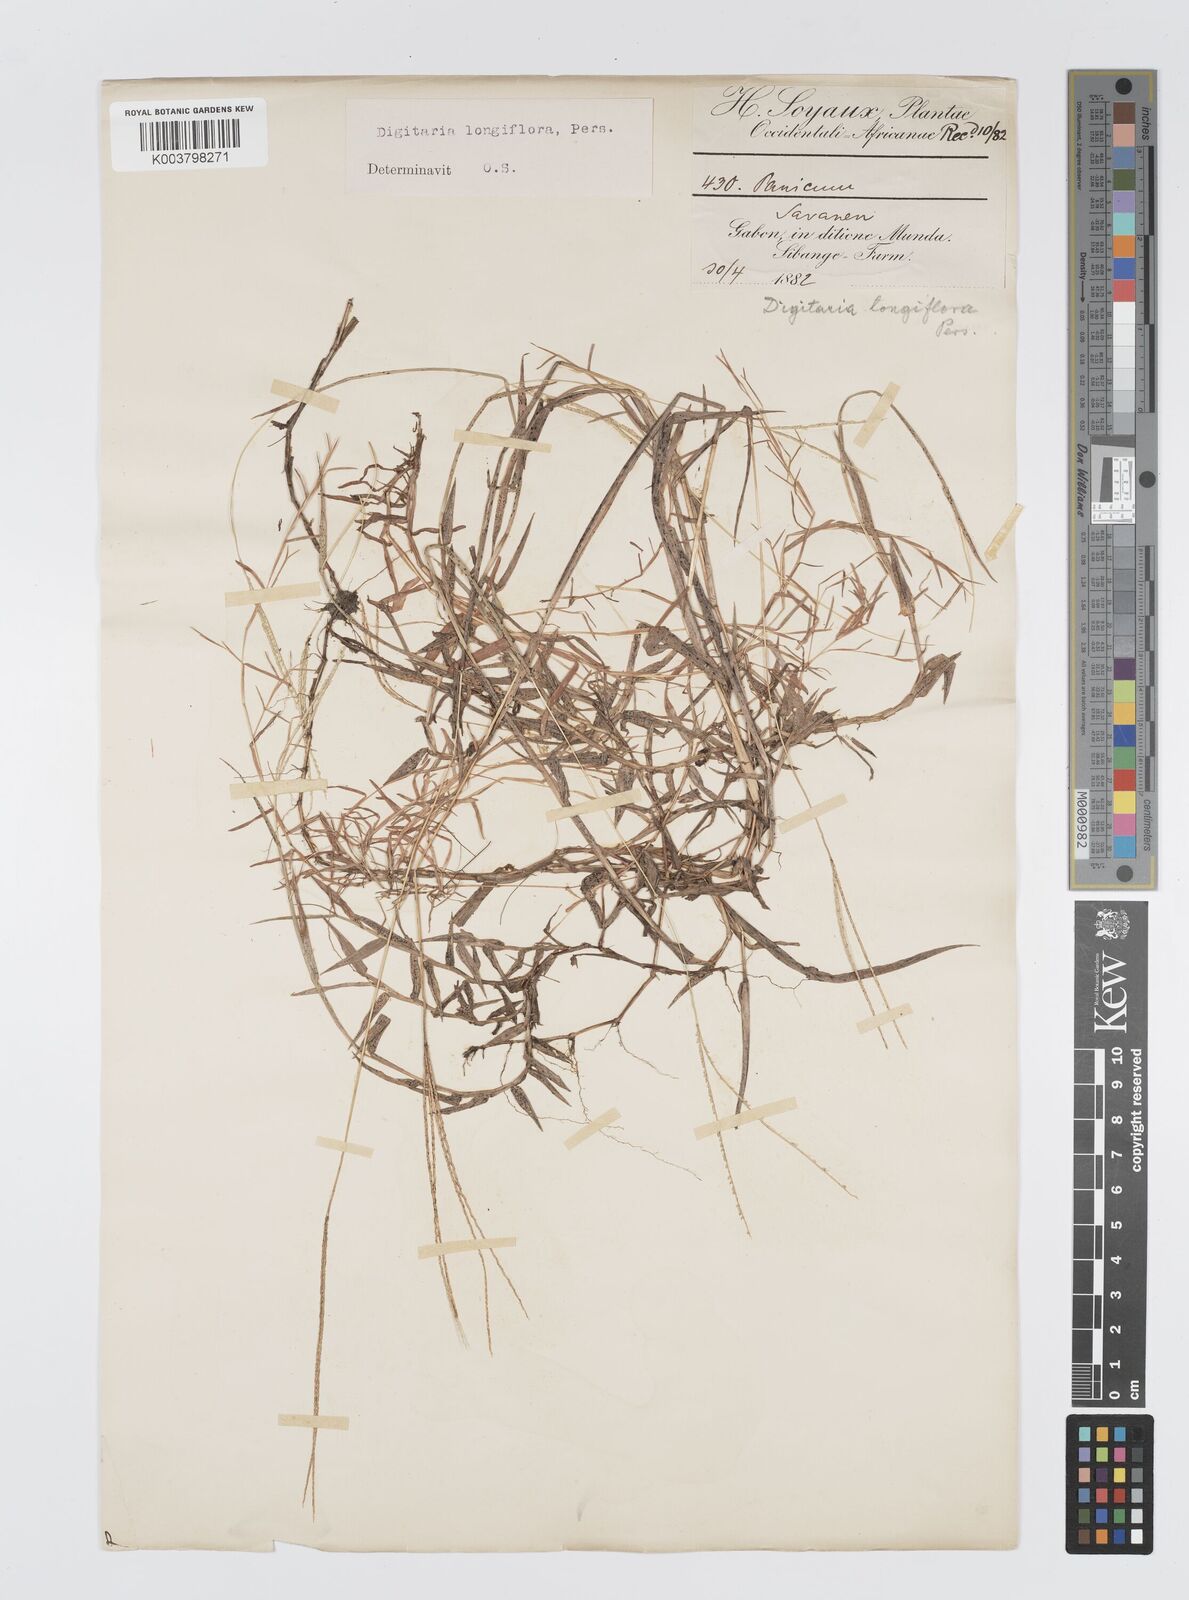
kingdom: Plantae
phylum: Tracheophyta
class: Liliopsida
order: Poales
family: Poaceae
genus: Digitaria
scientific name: Digitaria longiflora
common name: Wire crabgrass
